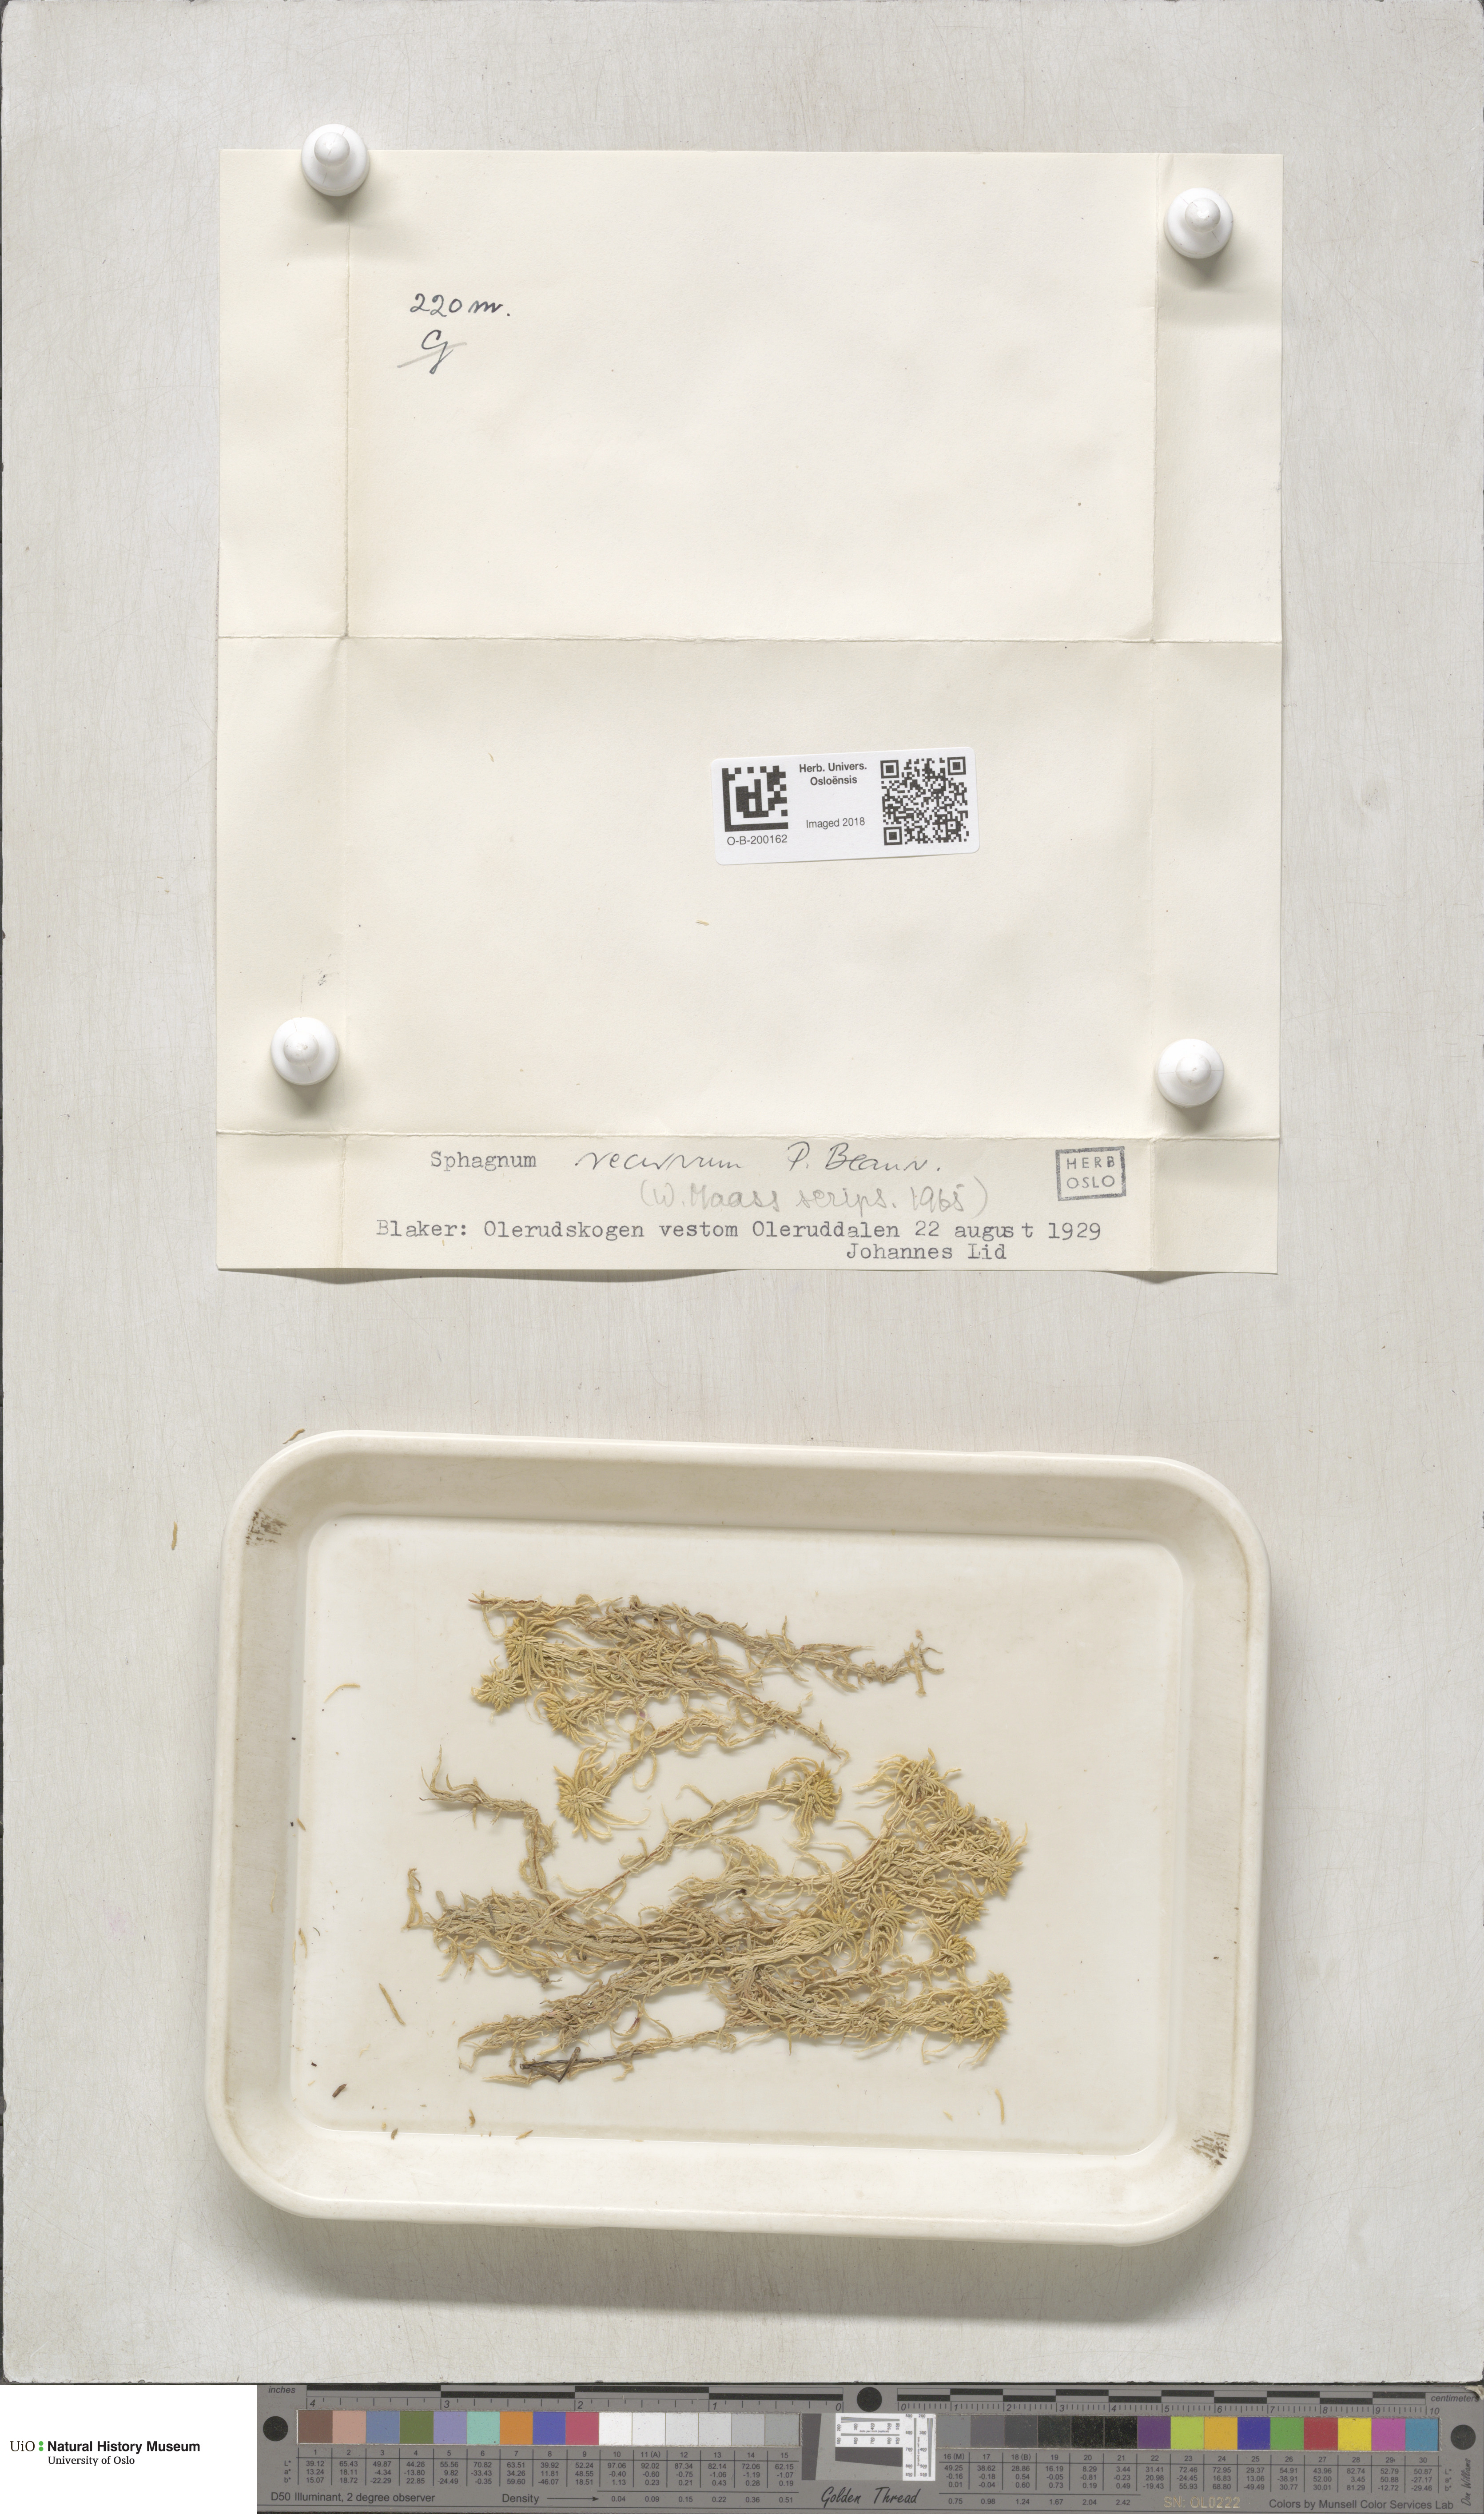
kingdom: Plantae
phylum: Bryophyta
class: Sphagnopsida
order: Sphagnales
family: Sphagnaceae
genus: Sphagnum
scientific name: Sphagnum fallax
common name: Flat-top peat moss
